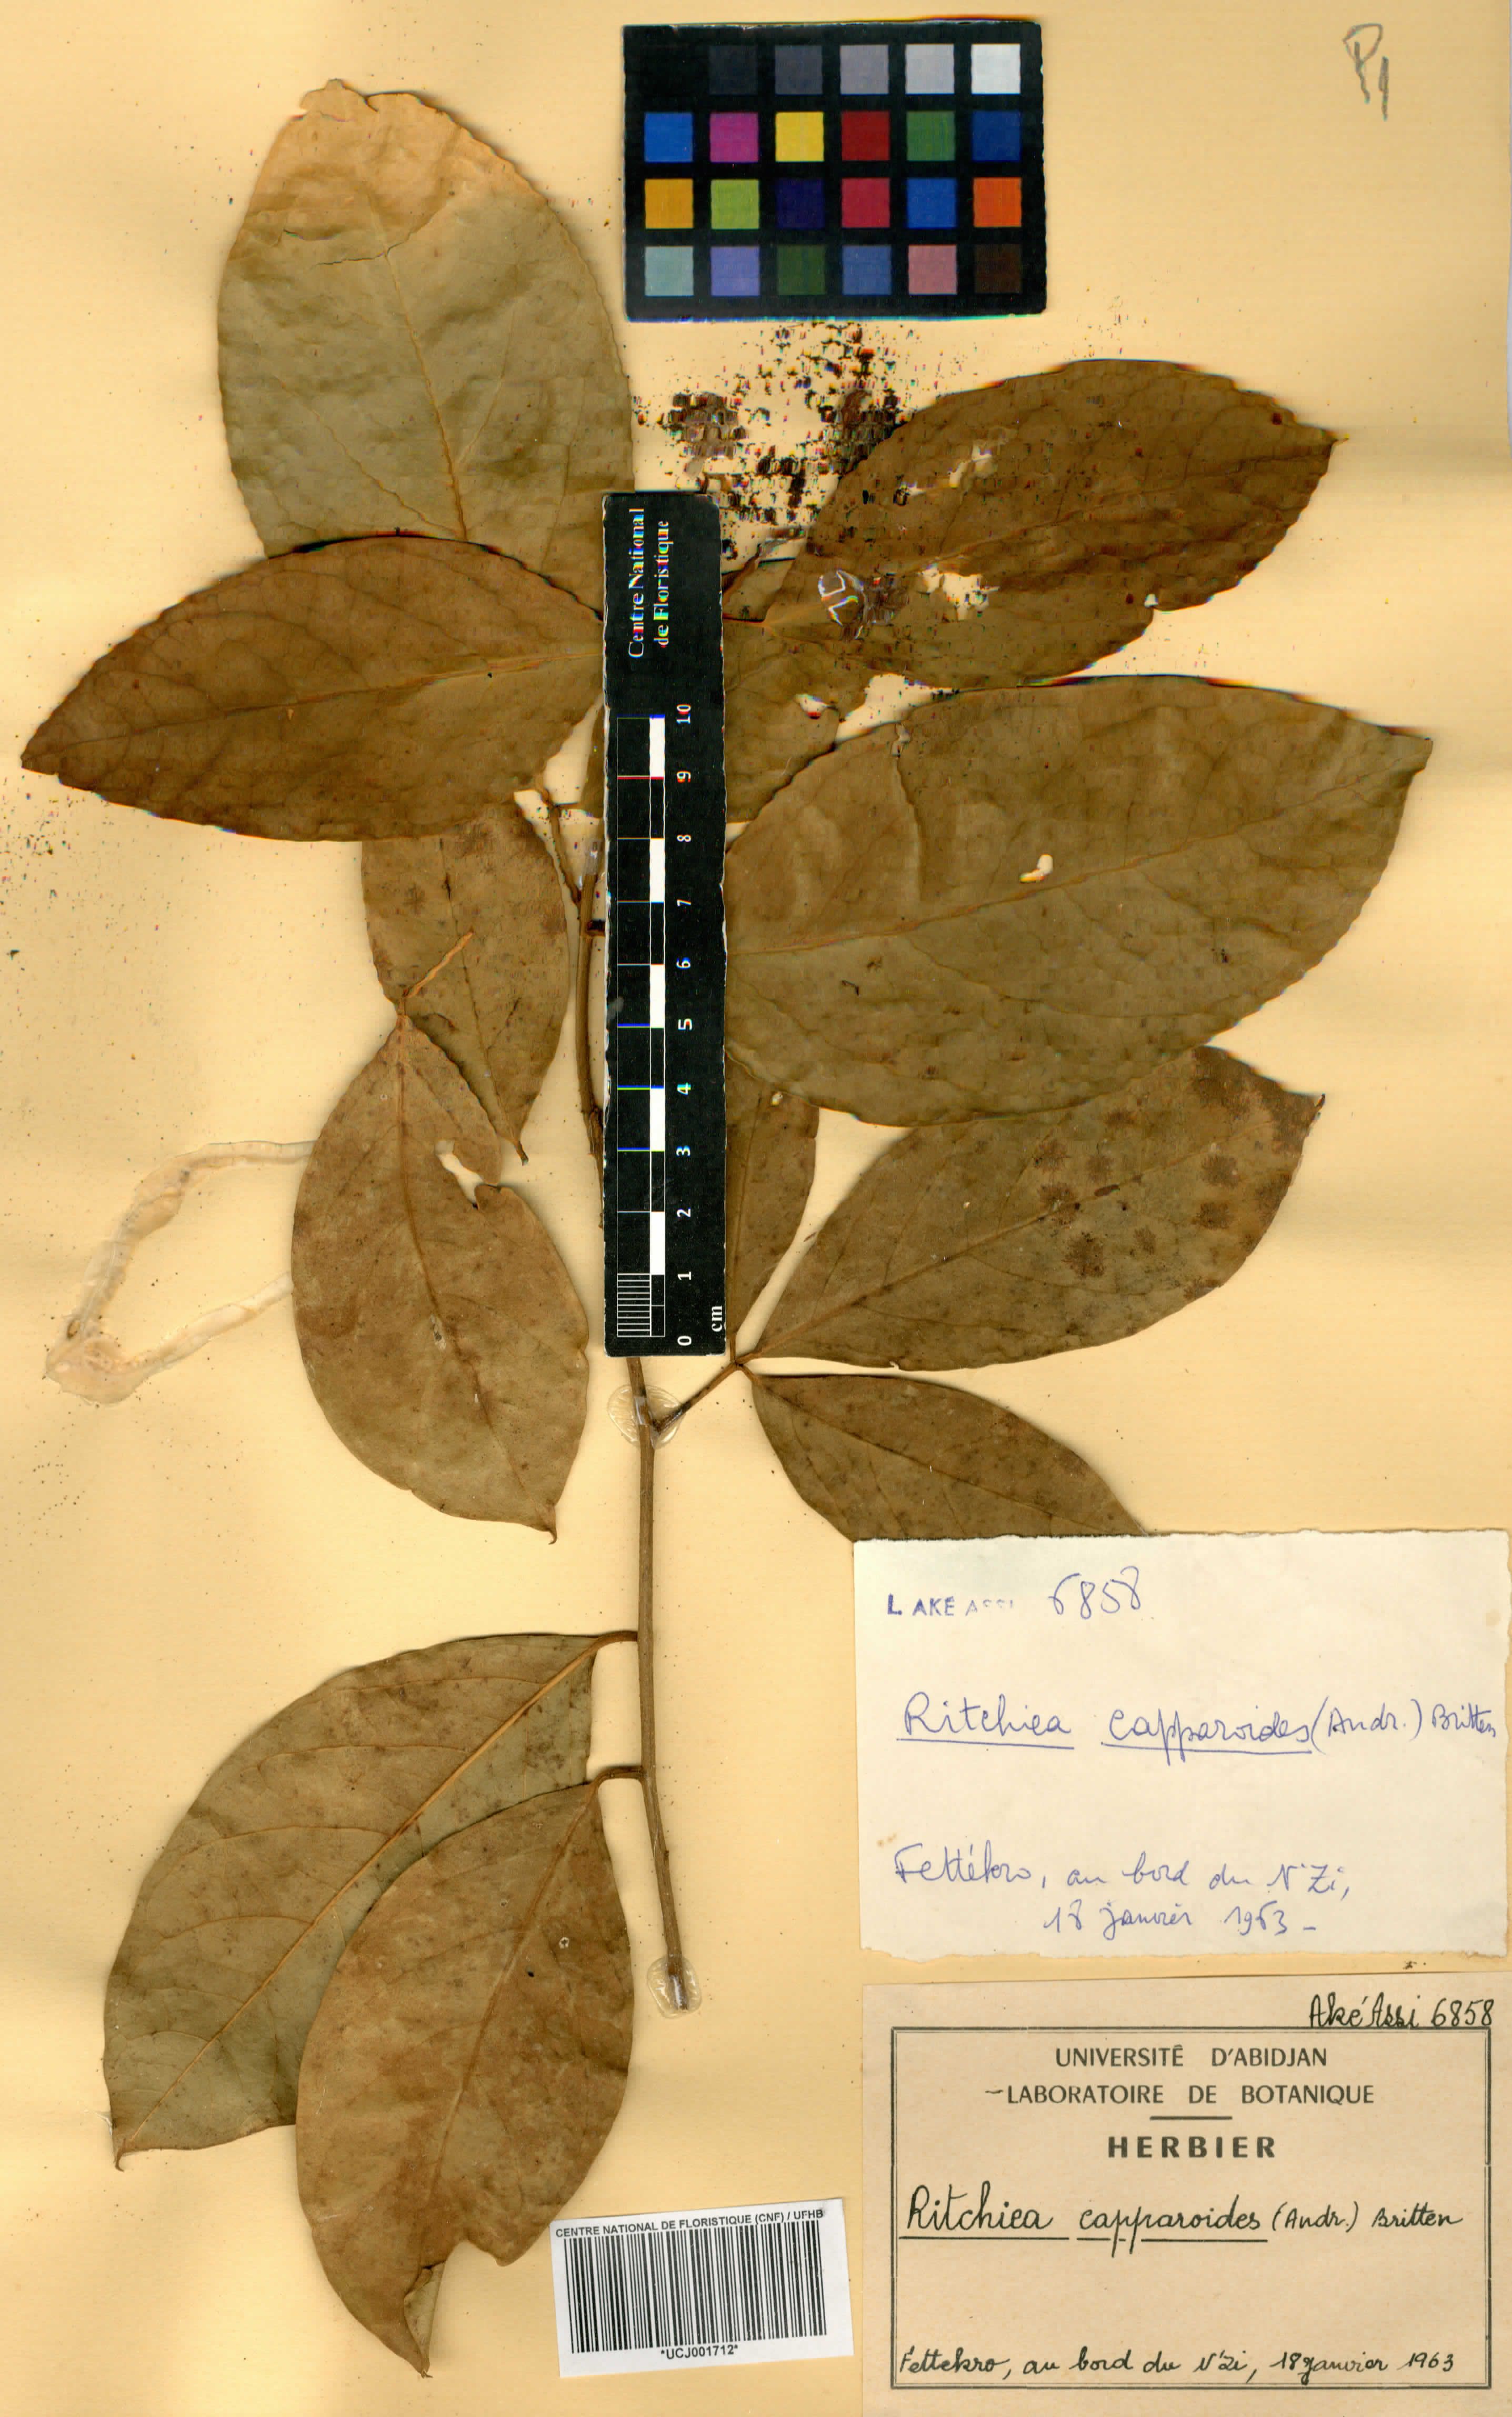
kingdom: Plantae
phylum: Tracheophyta
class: Magnoliopsida
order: Brassicales
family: Capparaceae
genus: Ritchiea
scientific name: Ritchiea capparoides
